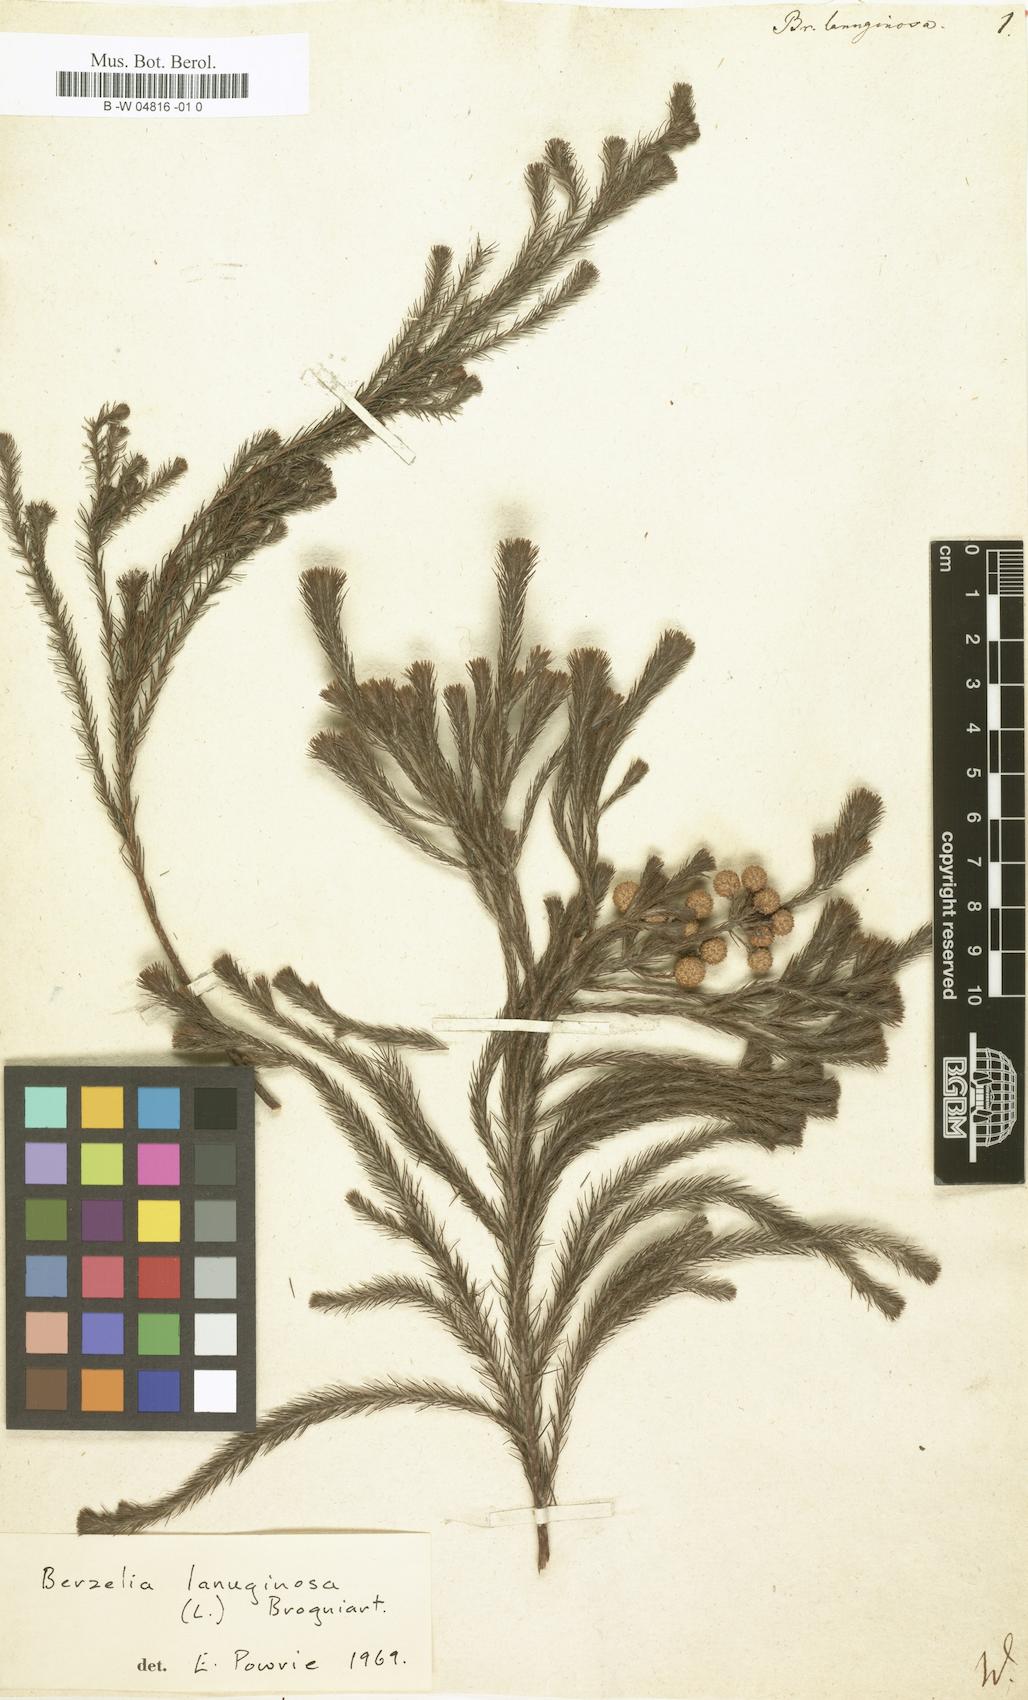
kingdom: Plantae
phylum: Tracheophyta
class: Magnoliopsida
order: Bruniales
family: Bruniaceae
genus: Berzelia
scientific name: Berzelia
